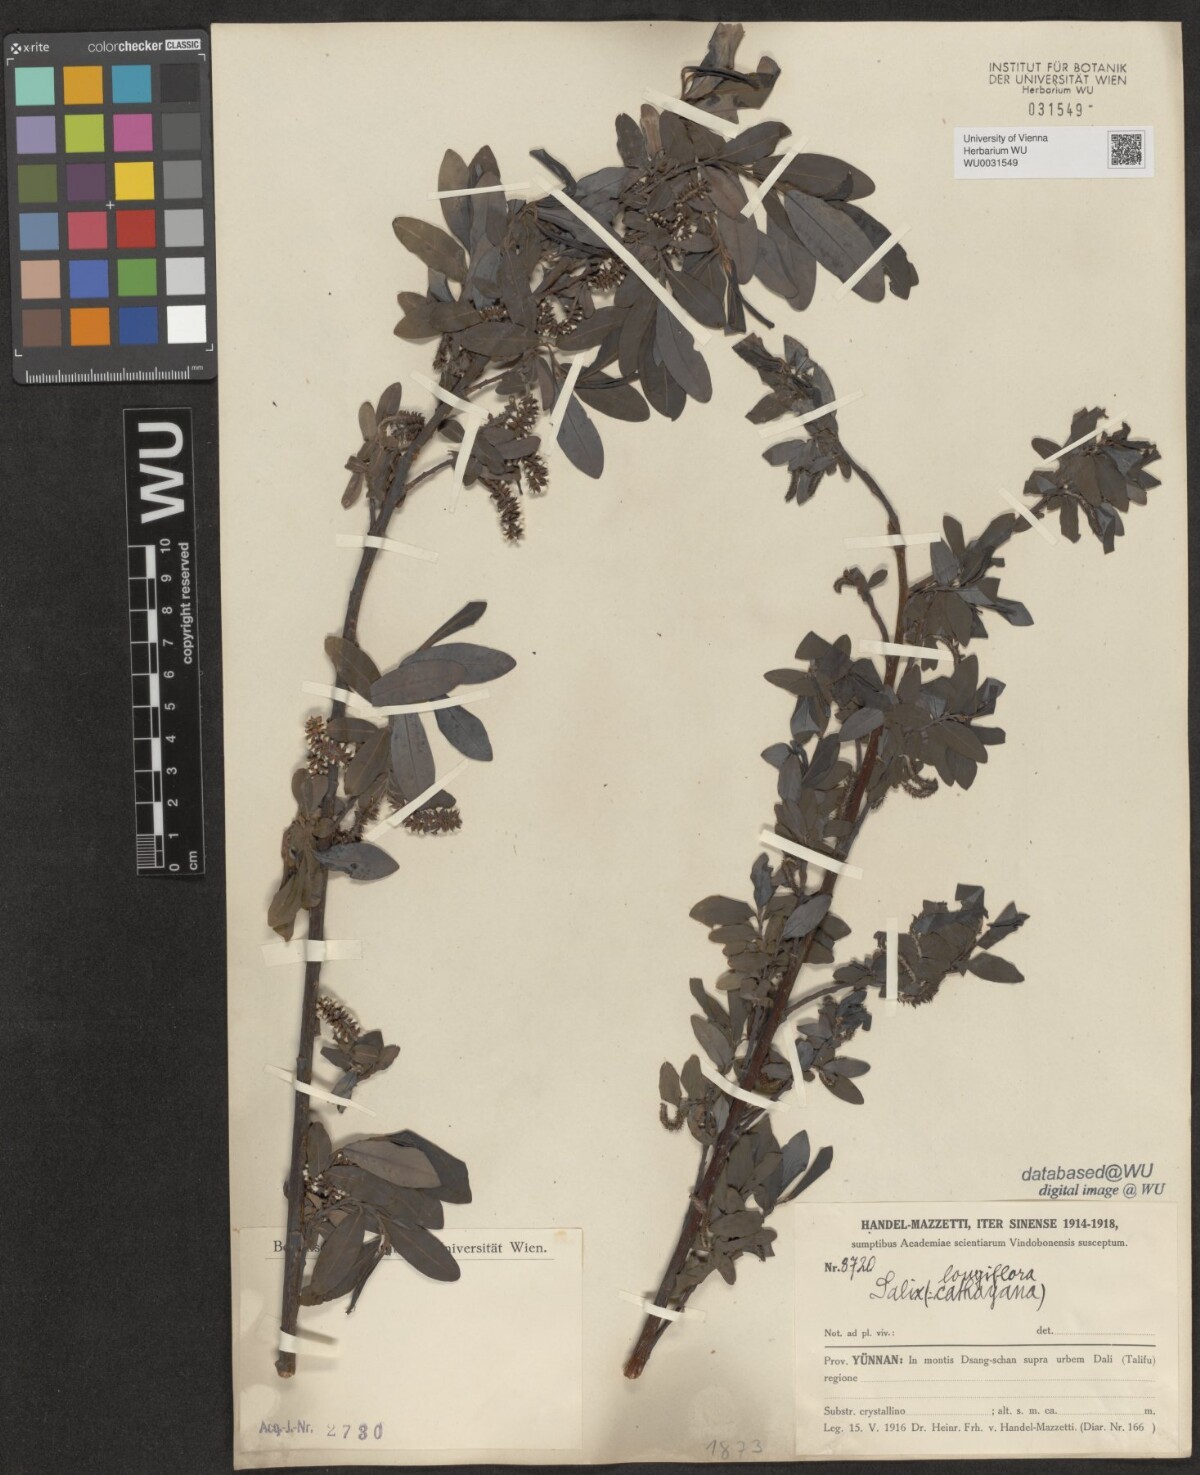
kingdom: Plantae
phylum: Tracheophyta
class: Magnoliopsida
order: Malpighiales
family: Salicaceae
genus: Salix
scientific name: Salix longiflora
